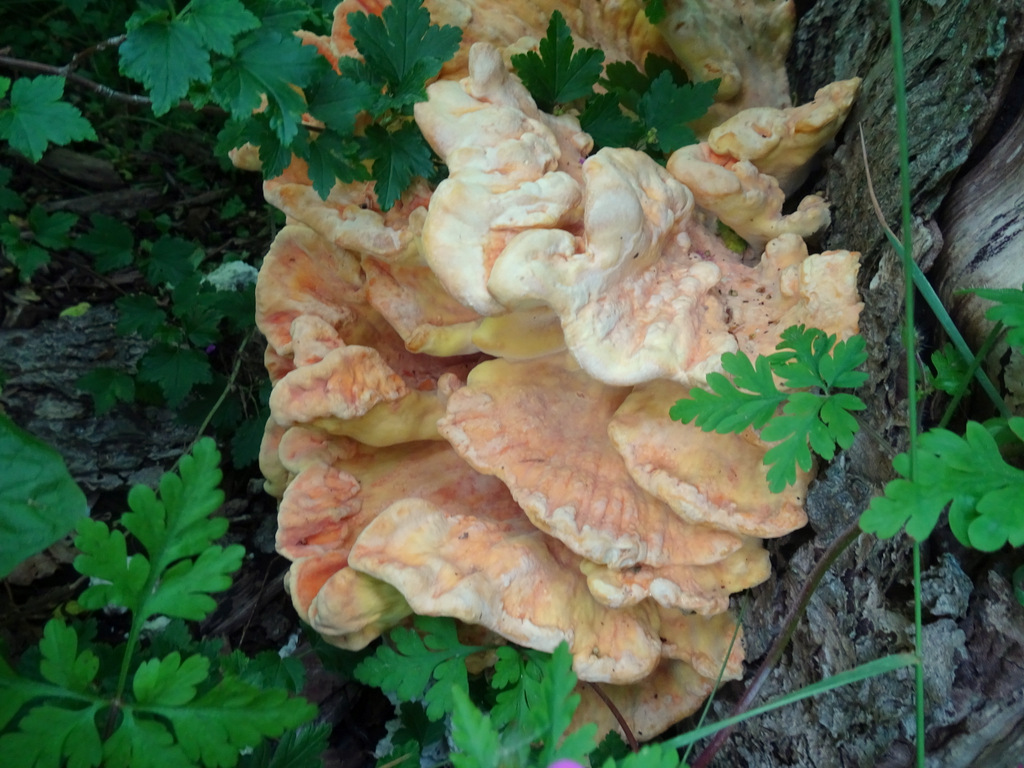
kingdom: Fungi
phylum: Basidiomycota
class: Agaricomycetes
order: Polyporales
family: Laetiporaceae
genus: Laetiporus
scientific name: Laetiporus sulphureus
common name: svovlporesvamp
